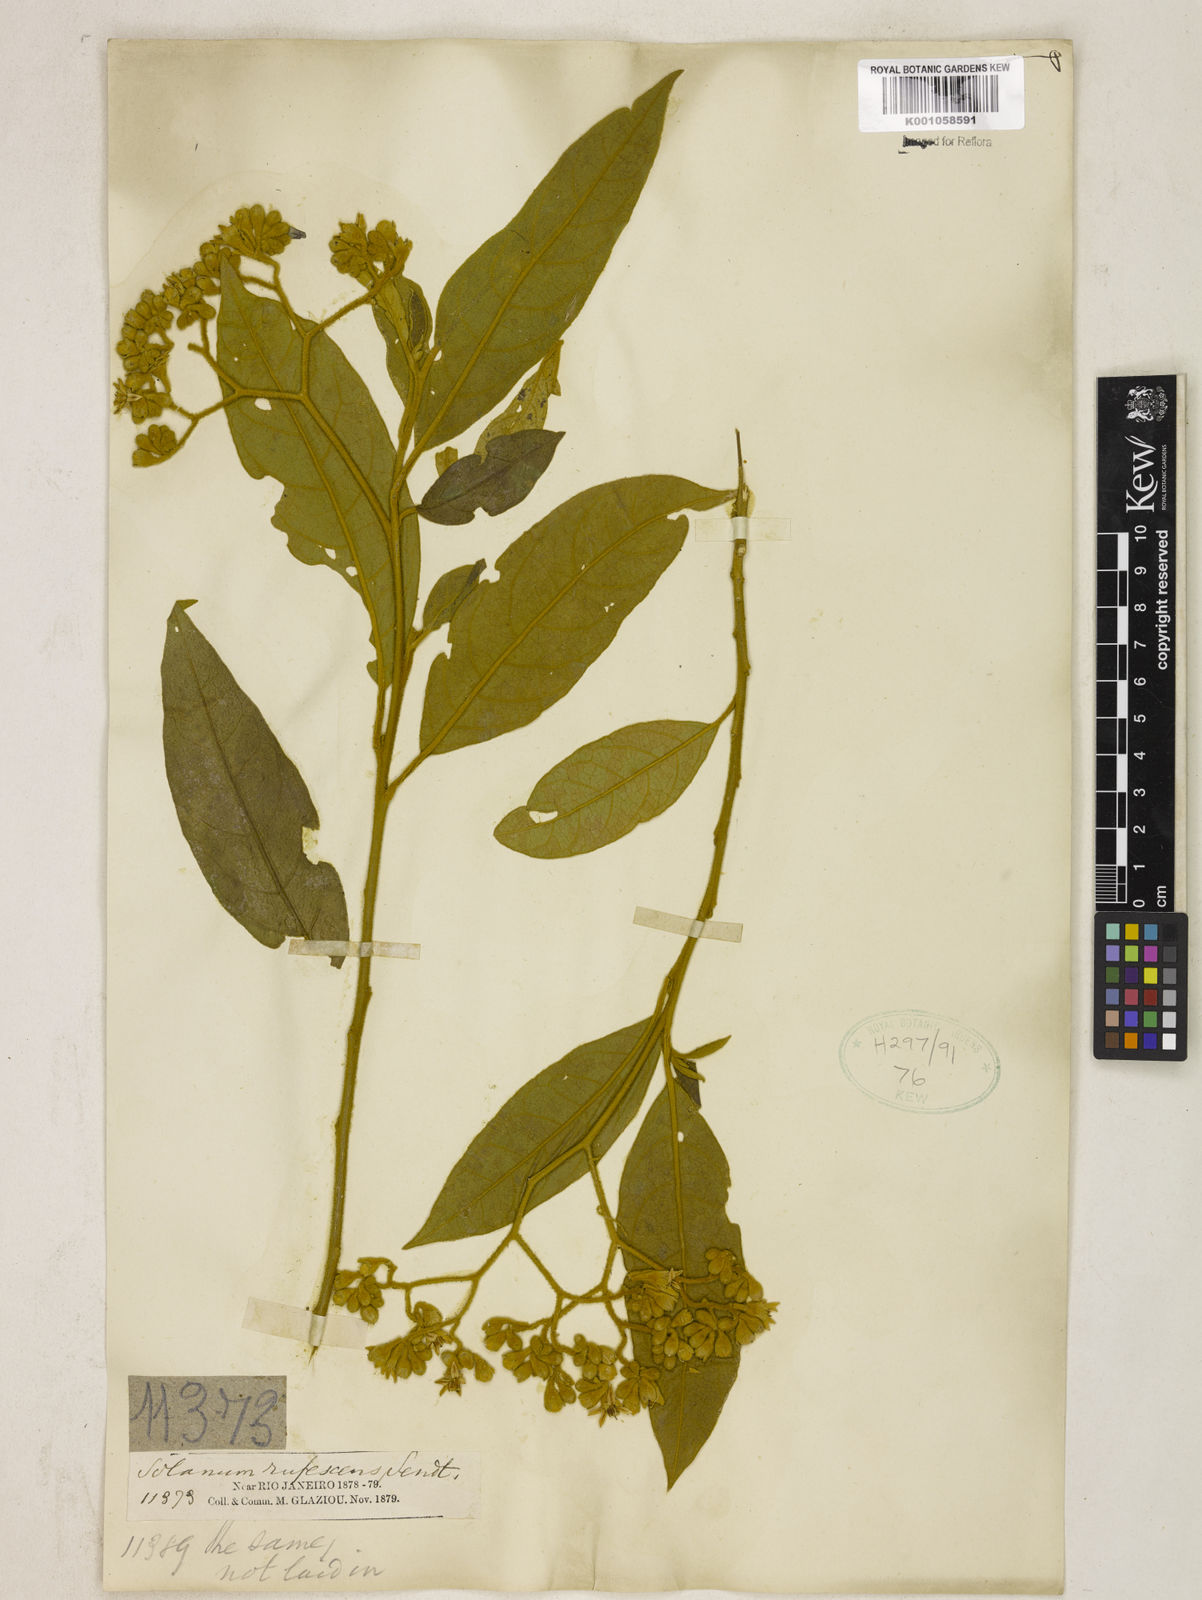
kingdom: Plantae
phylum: Tracheophyta
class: Magnoliopsida
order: Solanales
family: Solanaceae
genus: Solanum
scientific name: Solanum rufescens
